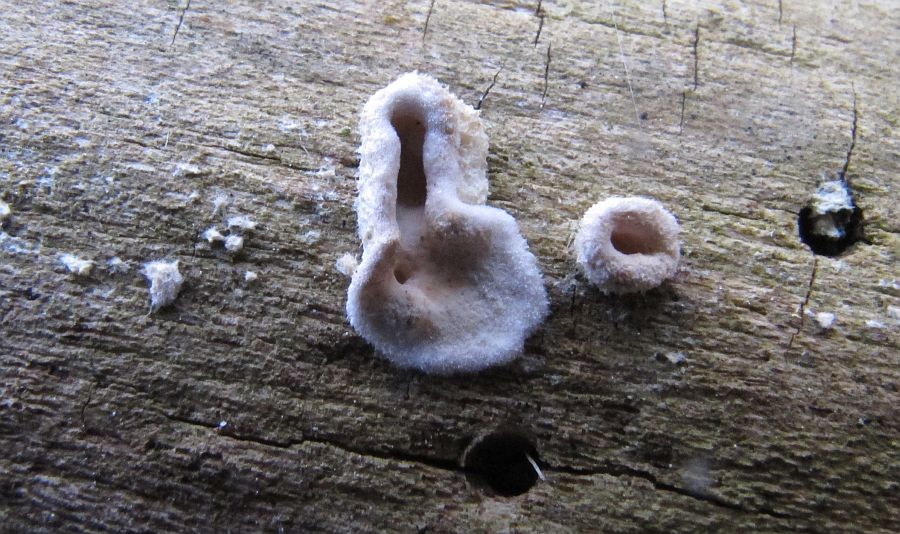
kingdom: Fungi
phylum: Basidiomycota
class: Agaricomycetes
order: Agaricales
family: Schizophyllaceae
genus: Schizophyllum
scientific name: Schizophyllum amplum
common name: poppel-hængeøre
